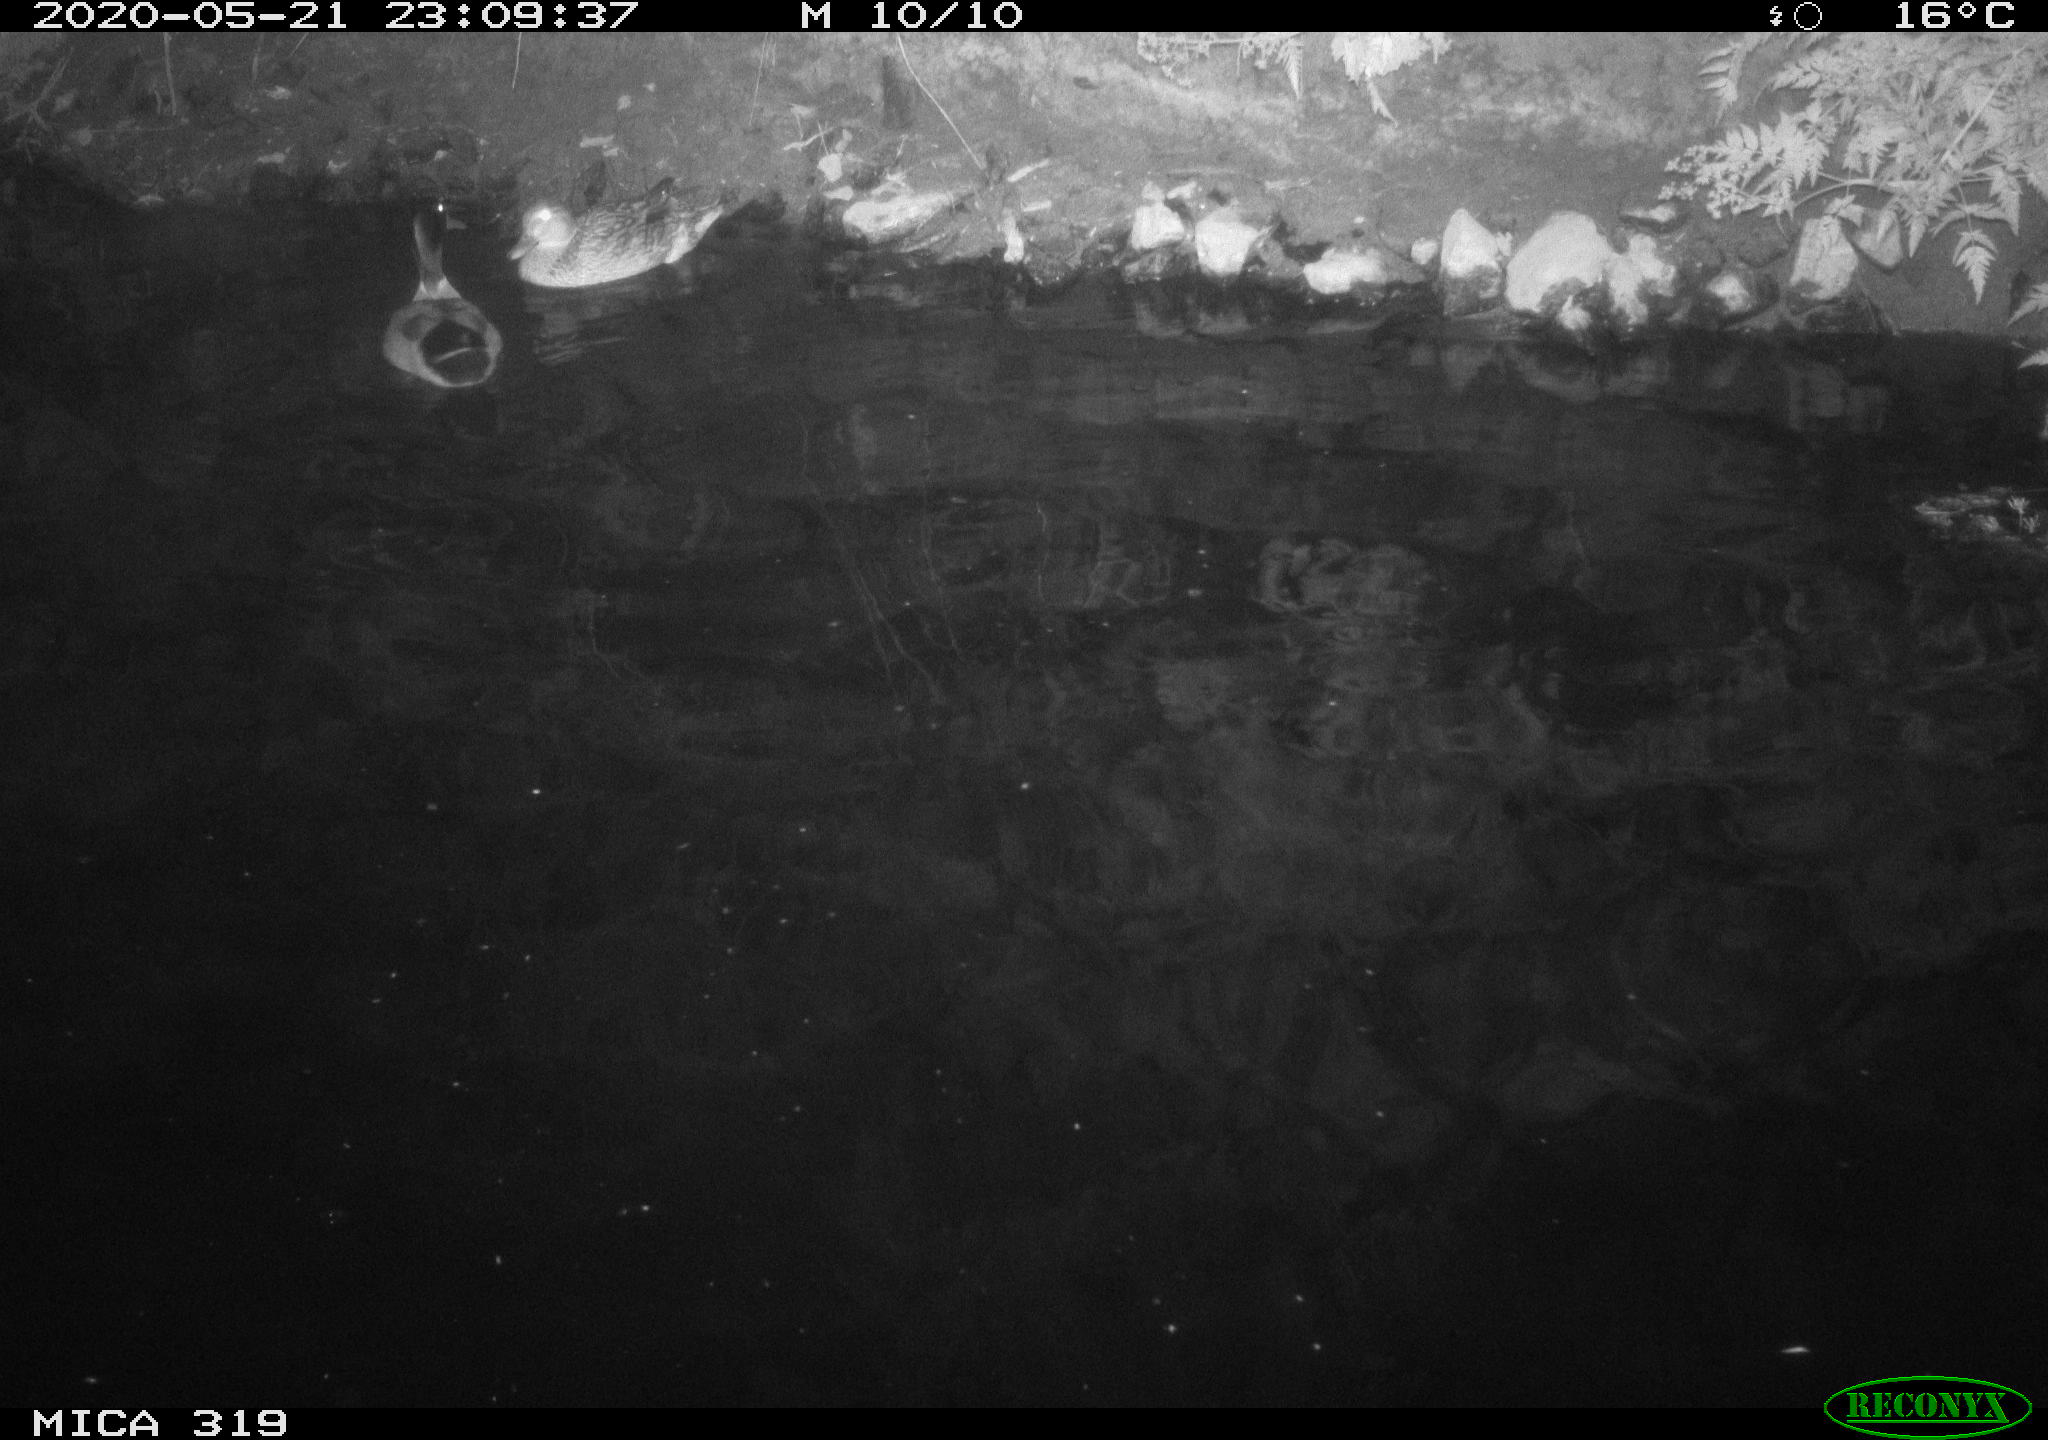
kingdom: Animalia
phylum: Chordata
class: Aves
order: Anseriformes
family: Anatidae
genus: Anas
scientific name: Anas platyrhynchos
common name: Mallard
